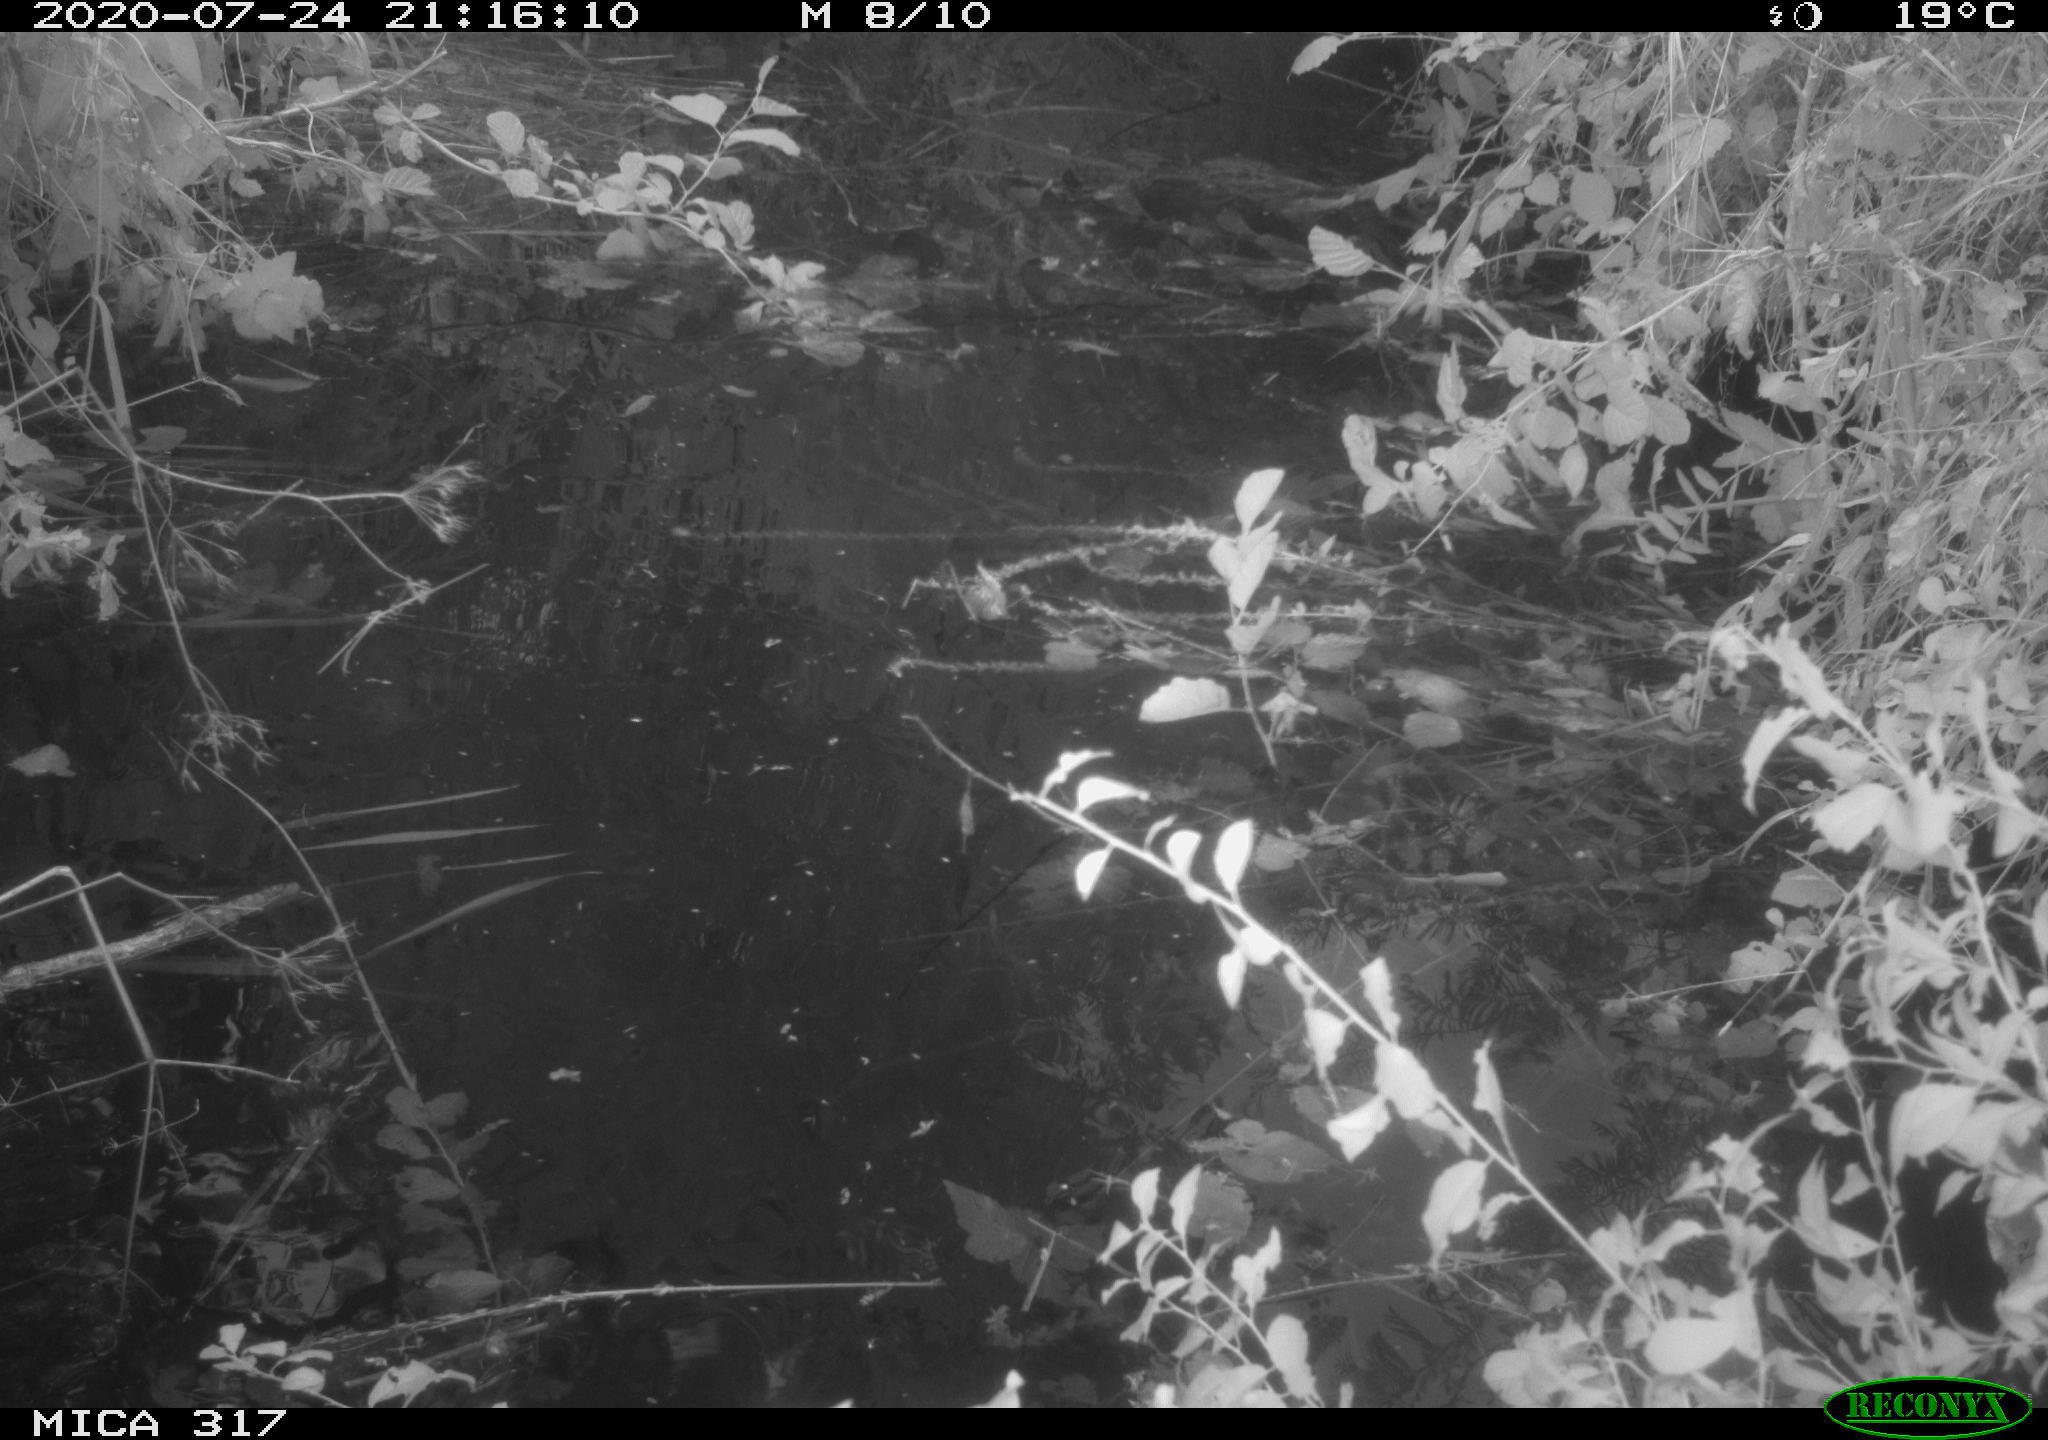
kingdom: Animalia
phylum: Chordata
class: Aves
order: Gruiformes
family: Rallidae
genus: Gallinula
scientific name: Gallinula chloropus
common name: Common moorhen
